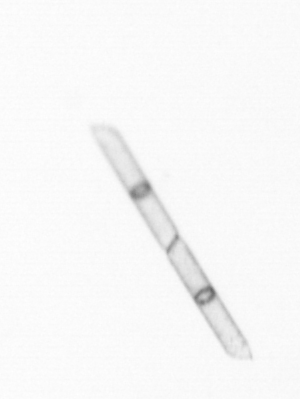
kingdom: Chromista
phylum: Ochrophyta
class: Bacillariophyceae
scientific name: Bacillariophyceae
